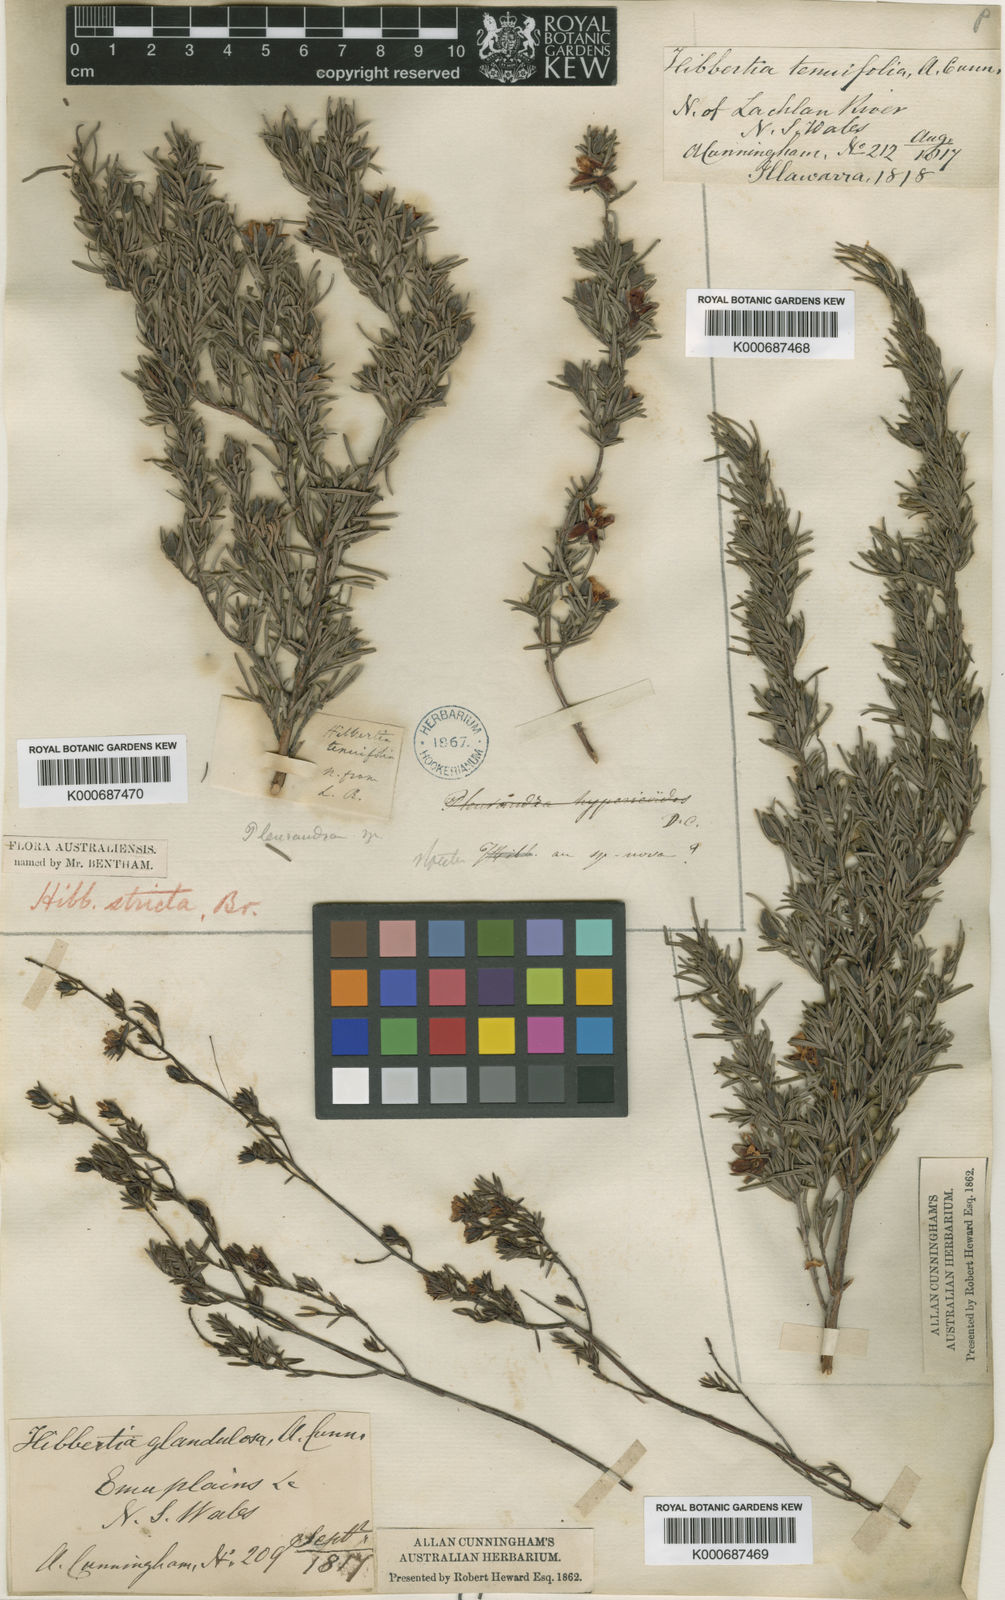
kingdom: Plantae
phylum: Tracheophyta
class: Magnoliopsida
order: Dilleniales
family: Dilleniaceae
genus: Hibbertia
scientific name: Hibbertia
